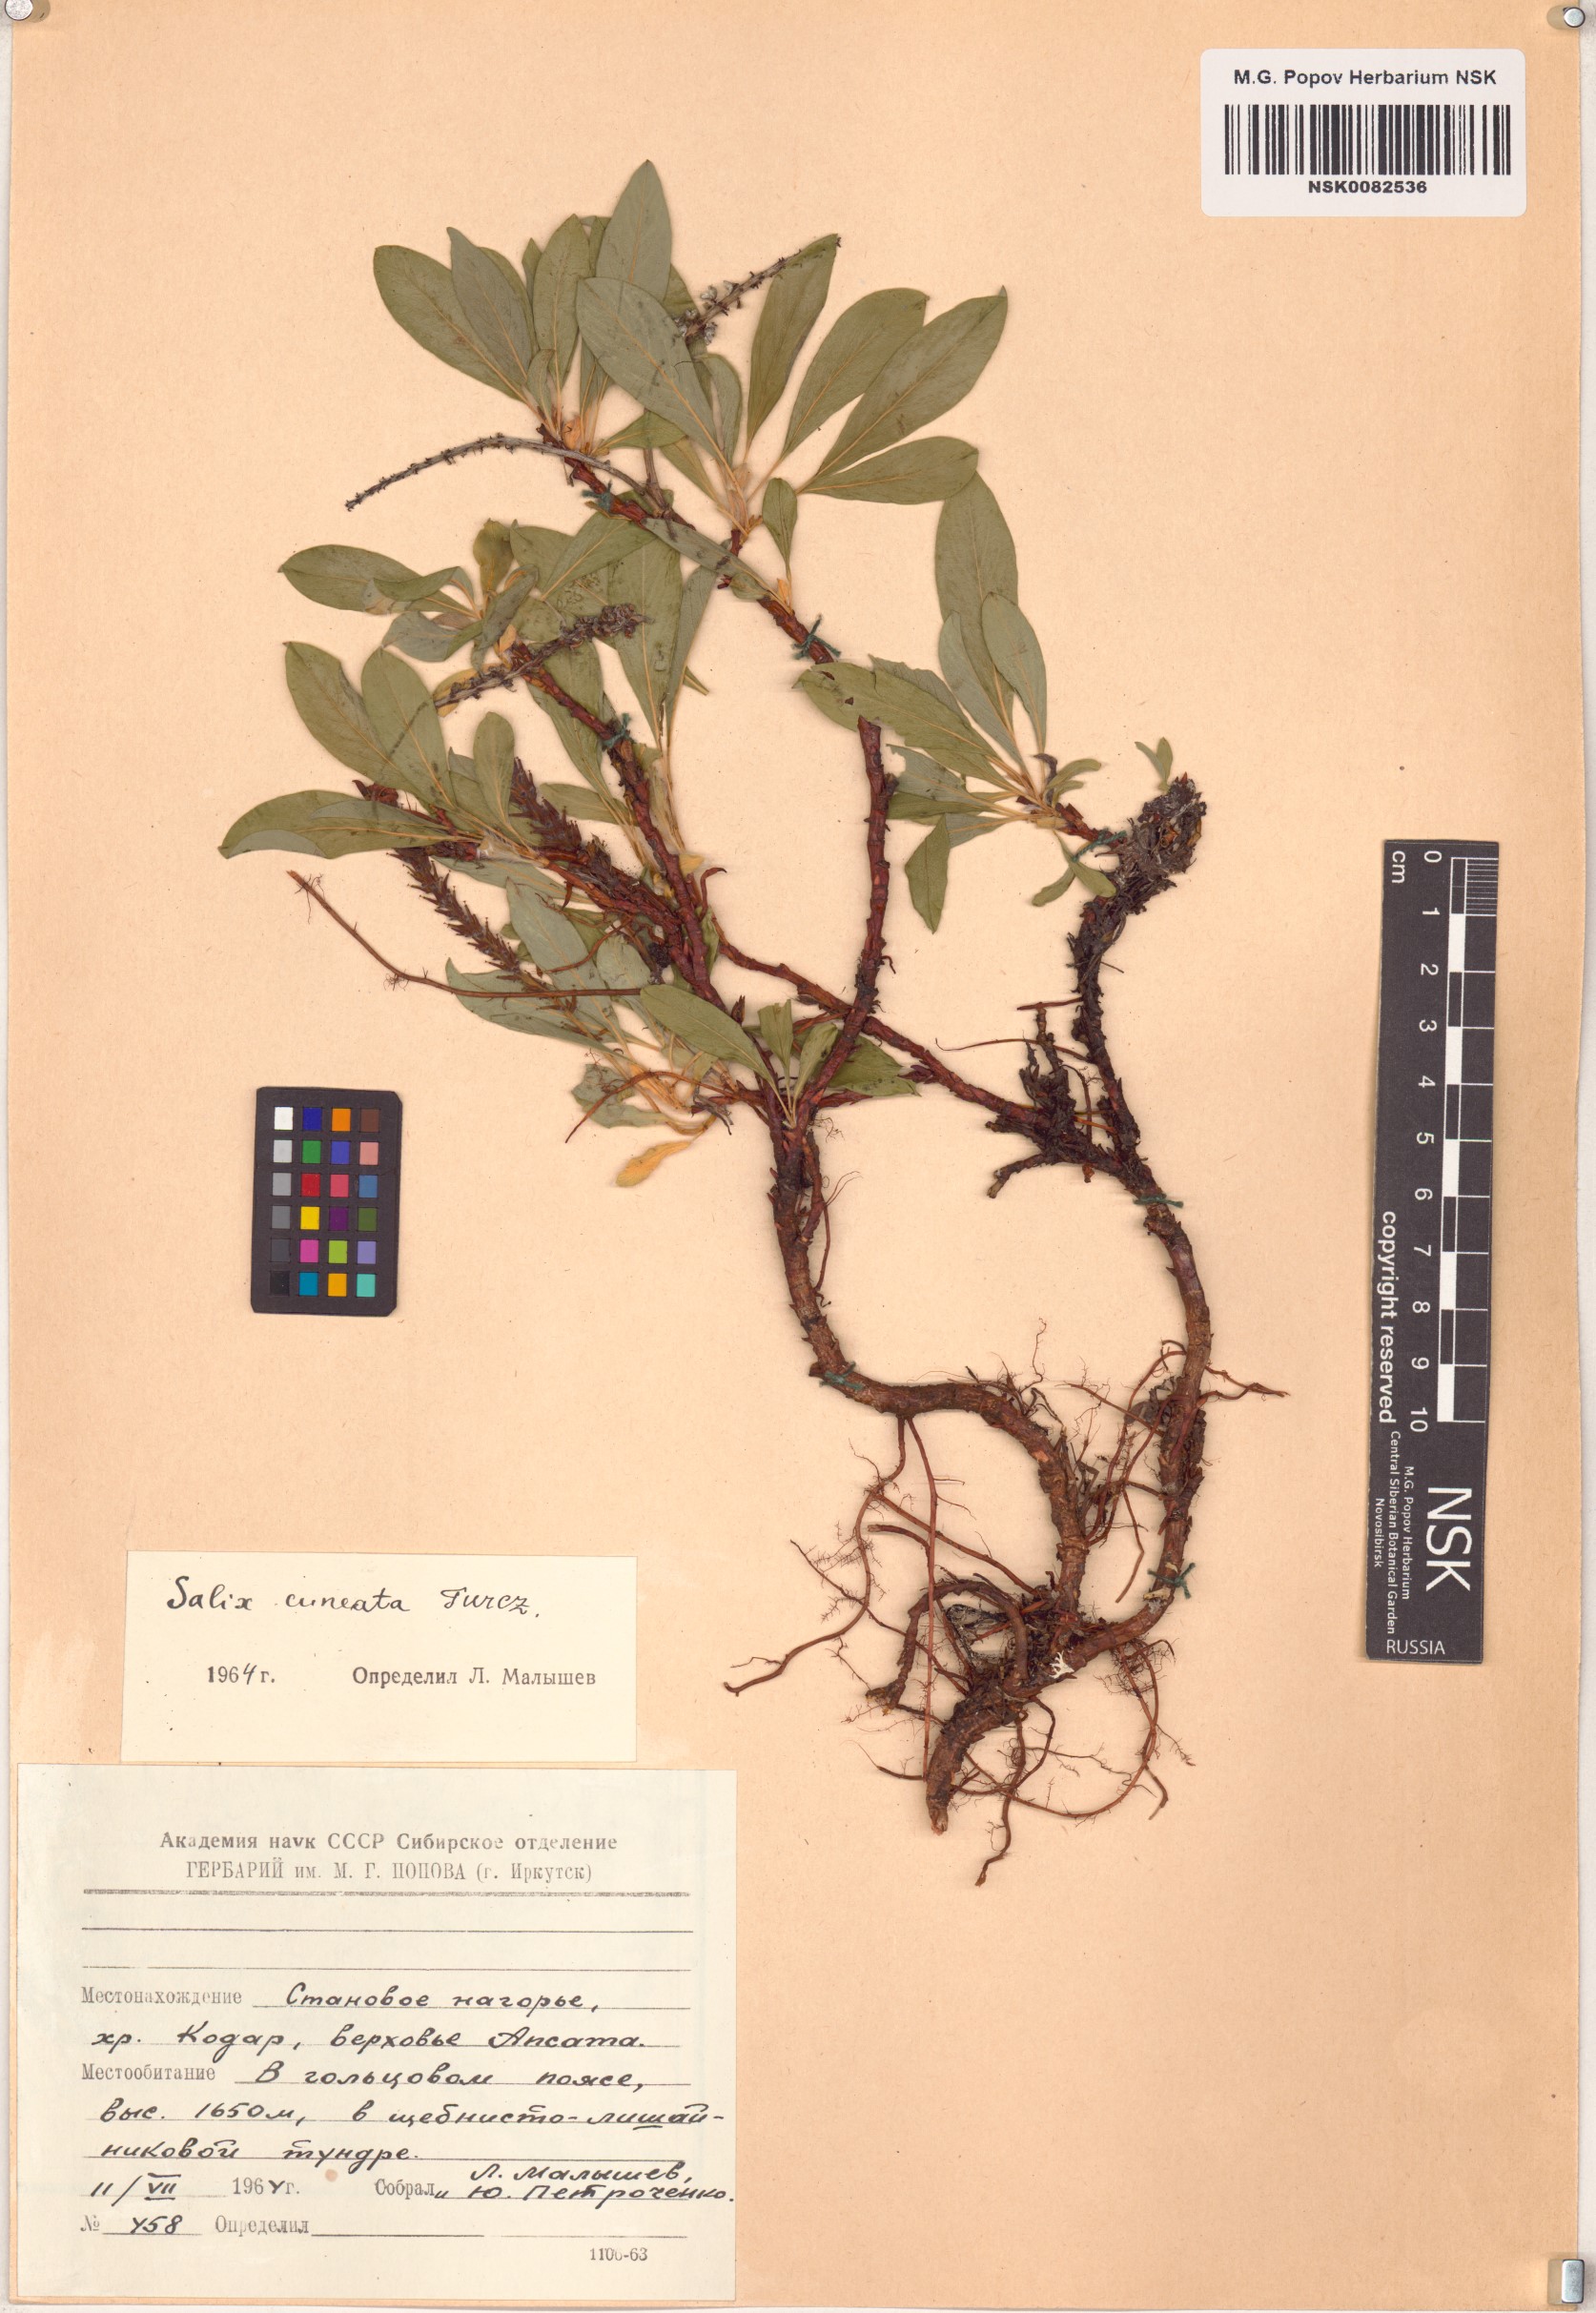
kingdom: Plantae
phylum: Tracheophyta
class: Magnoliopsida
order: Malpighiales
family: Salicaceae
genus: Salix
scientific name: Salix sphenophylla
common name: Wedge-leaved willow
